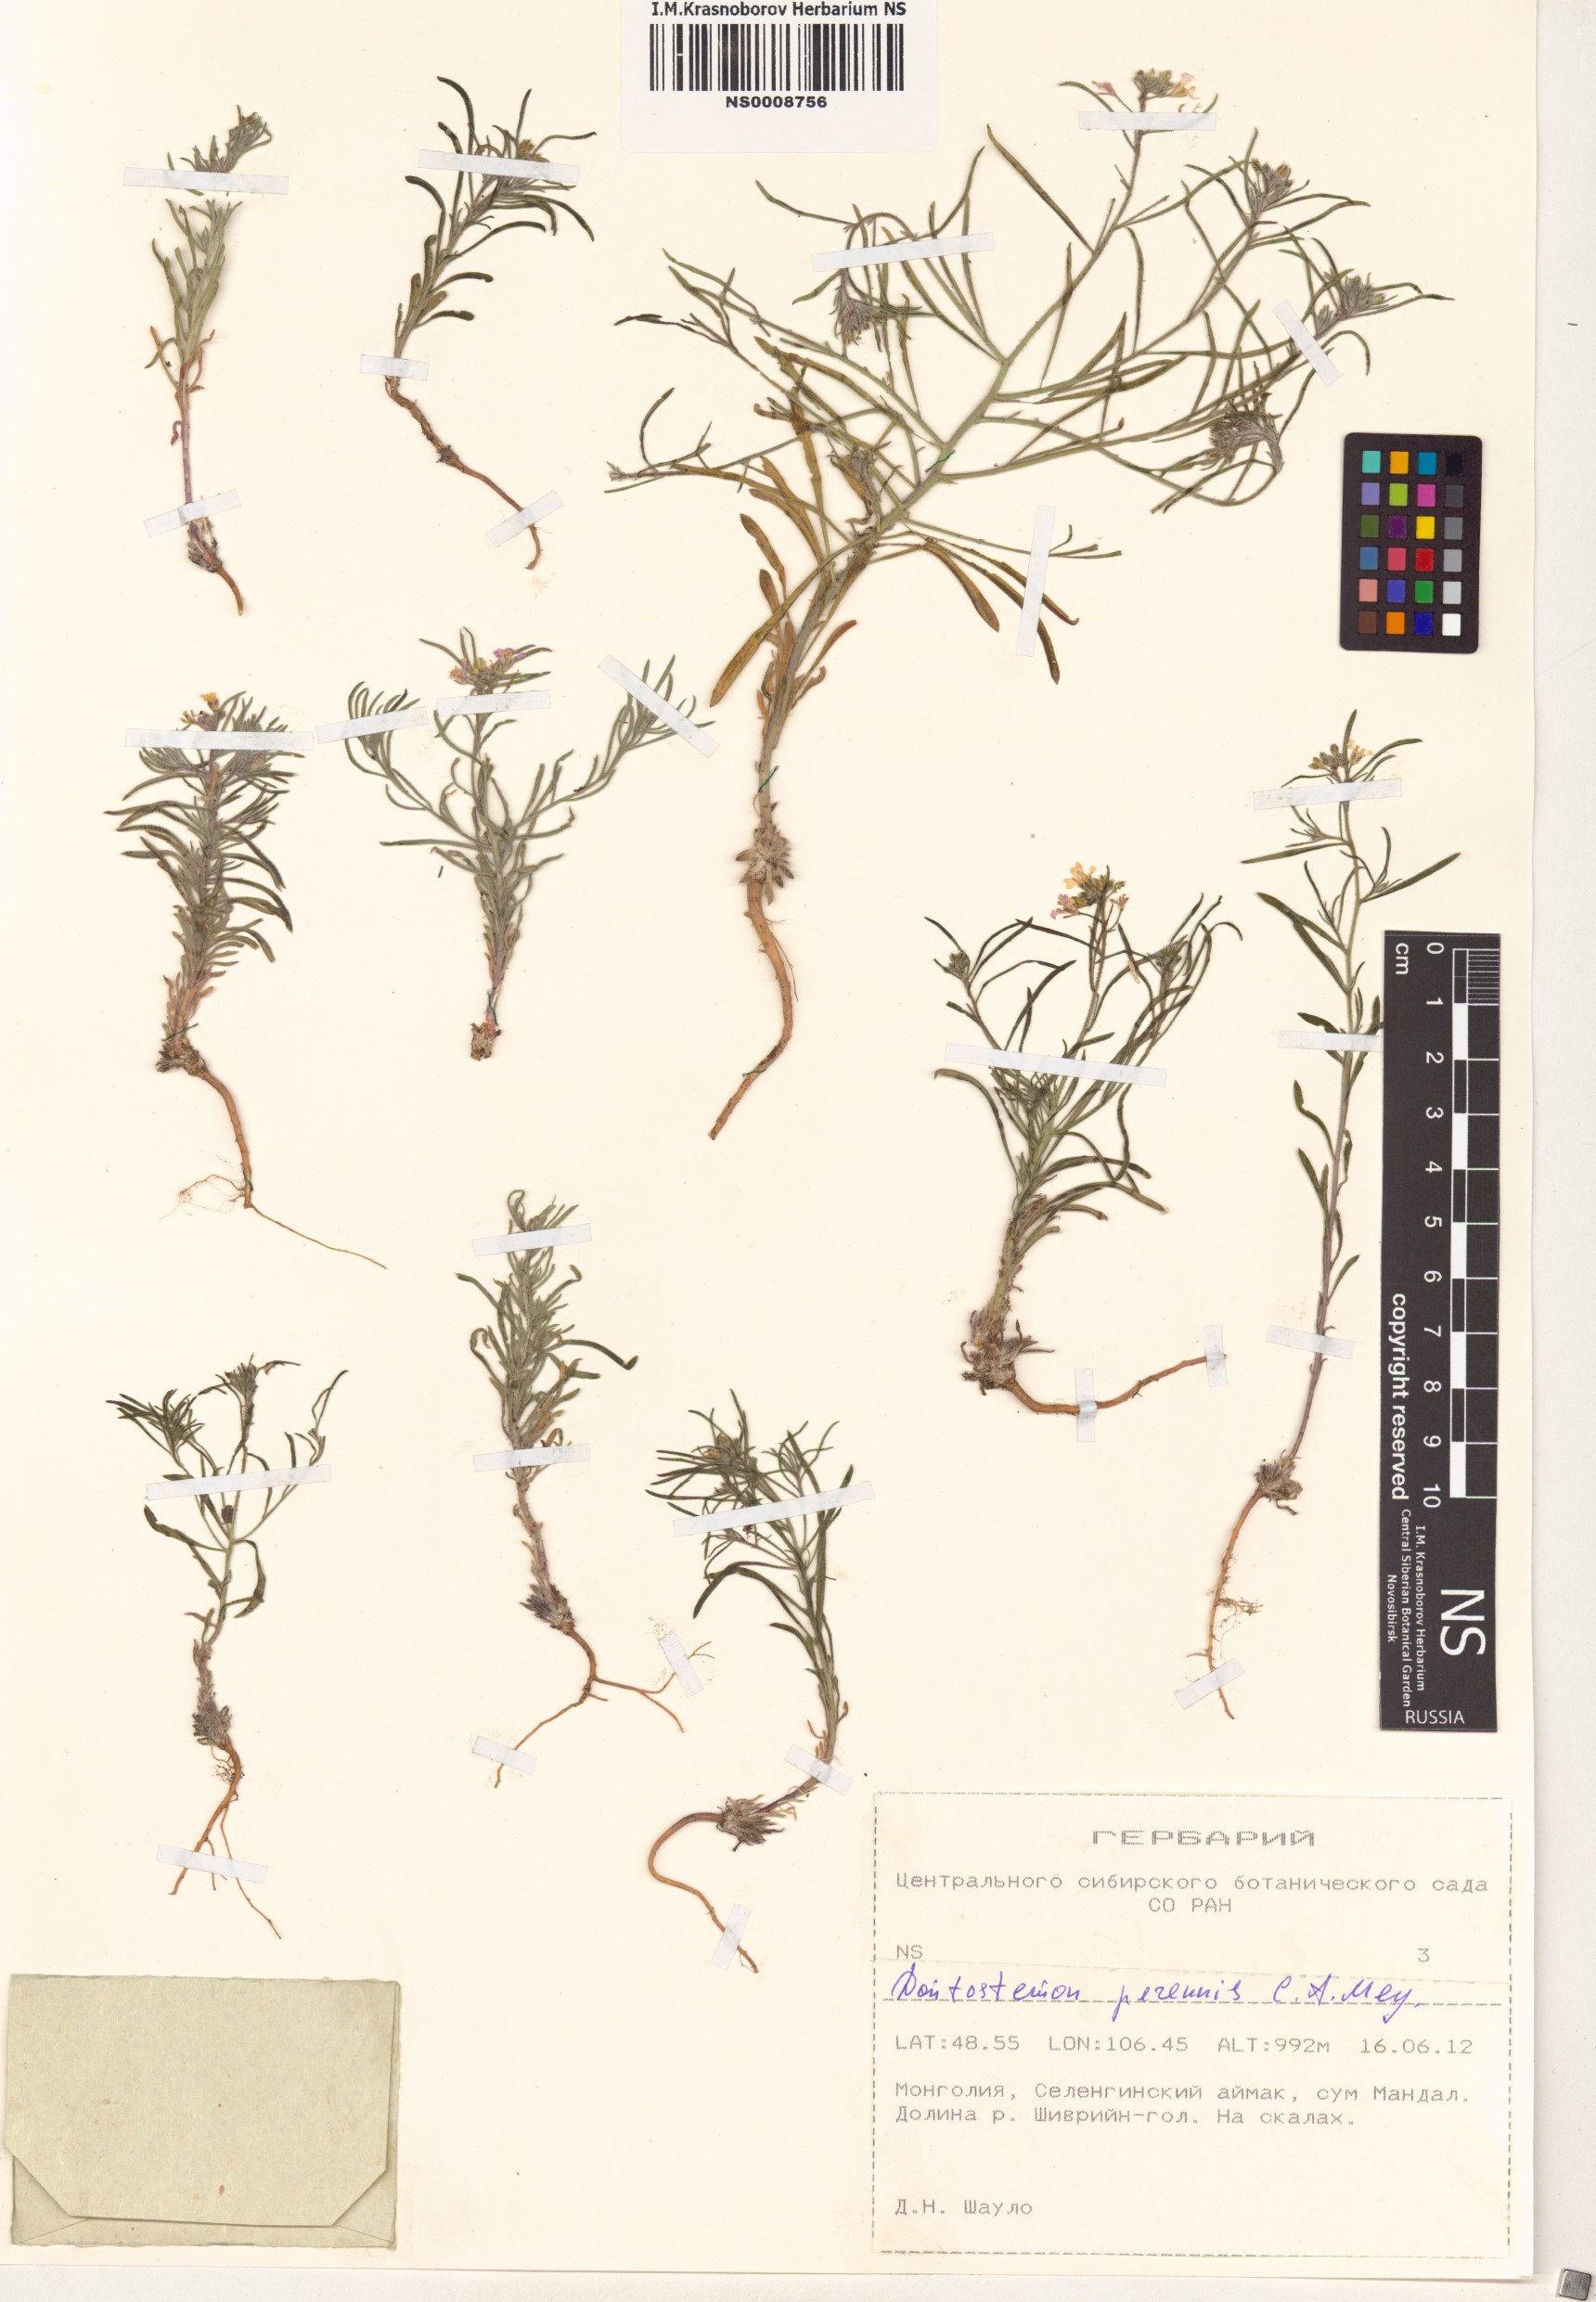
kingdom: Plantae
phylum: Tracheophyta
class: Magnoliopsida
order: Brassicales
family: Brassicaceae
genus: Dontostemon
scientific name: Dontostemon perennis
